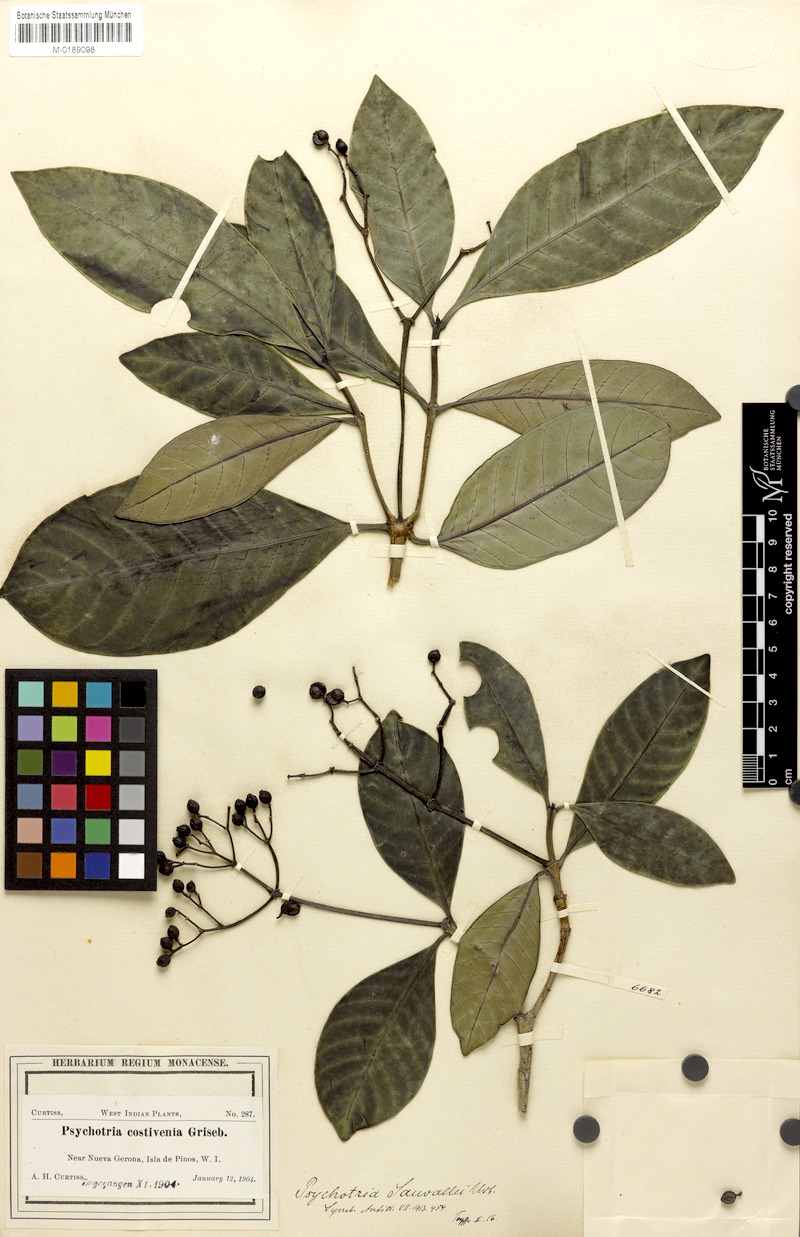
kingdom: Plantae
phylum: Tracheophyta
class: Magnoliopsida
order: Gentianales
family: Rubiaceae
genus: Psychotria
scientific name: Psychotria geronensis
